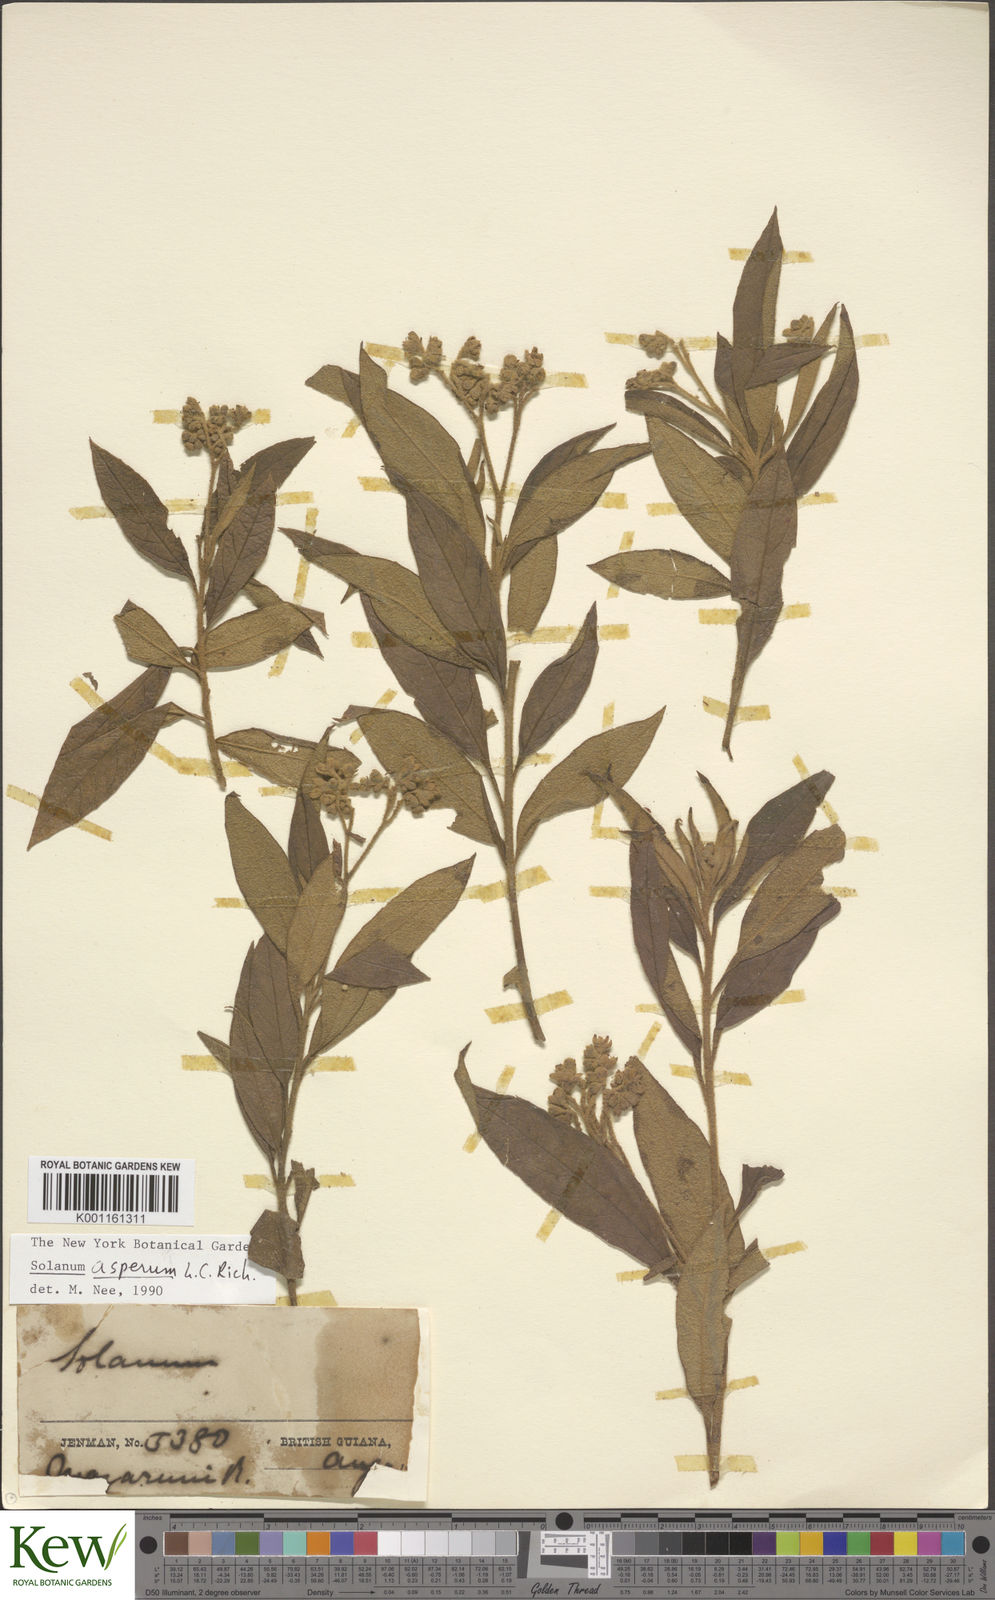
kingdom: Plantae
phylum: Tracheophyta
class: Magnoliopsida
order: Solanales
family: Solanaceae
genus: Solanum
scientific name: Solanum asperum
